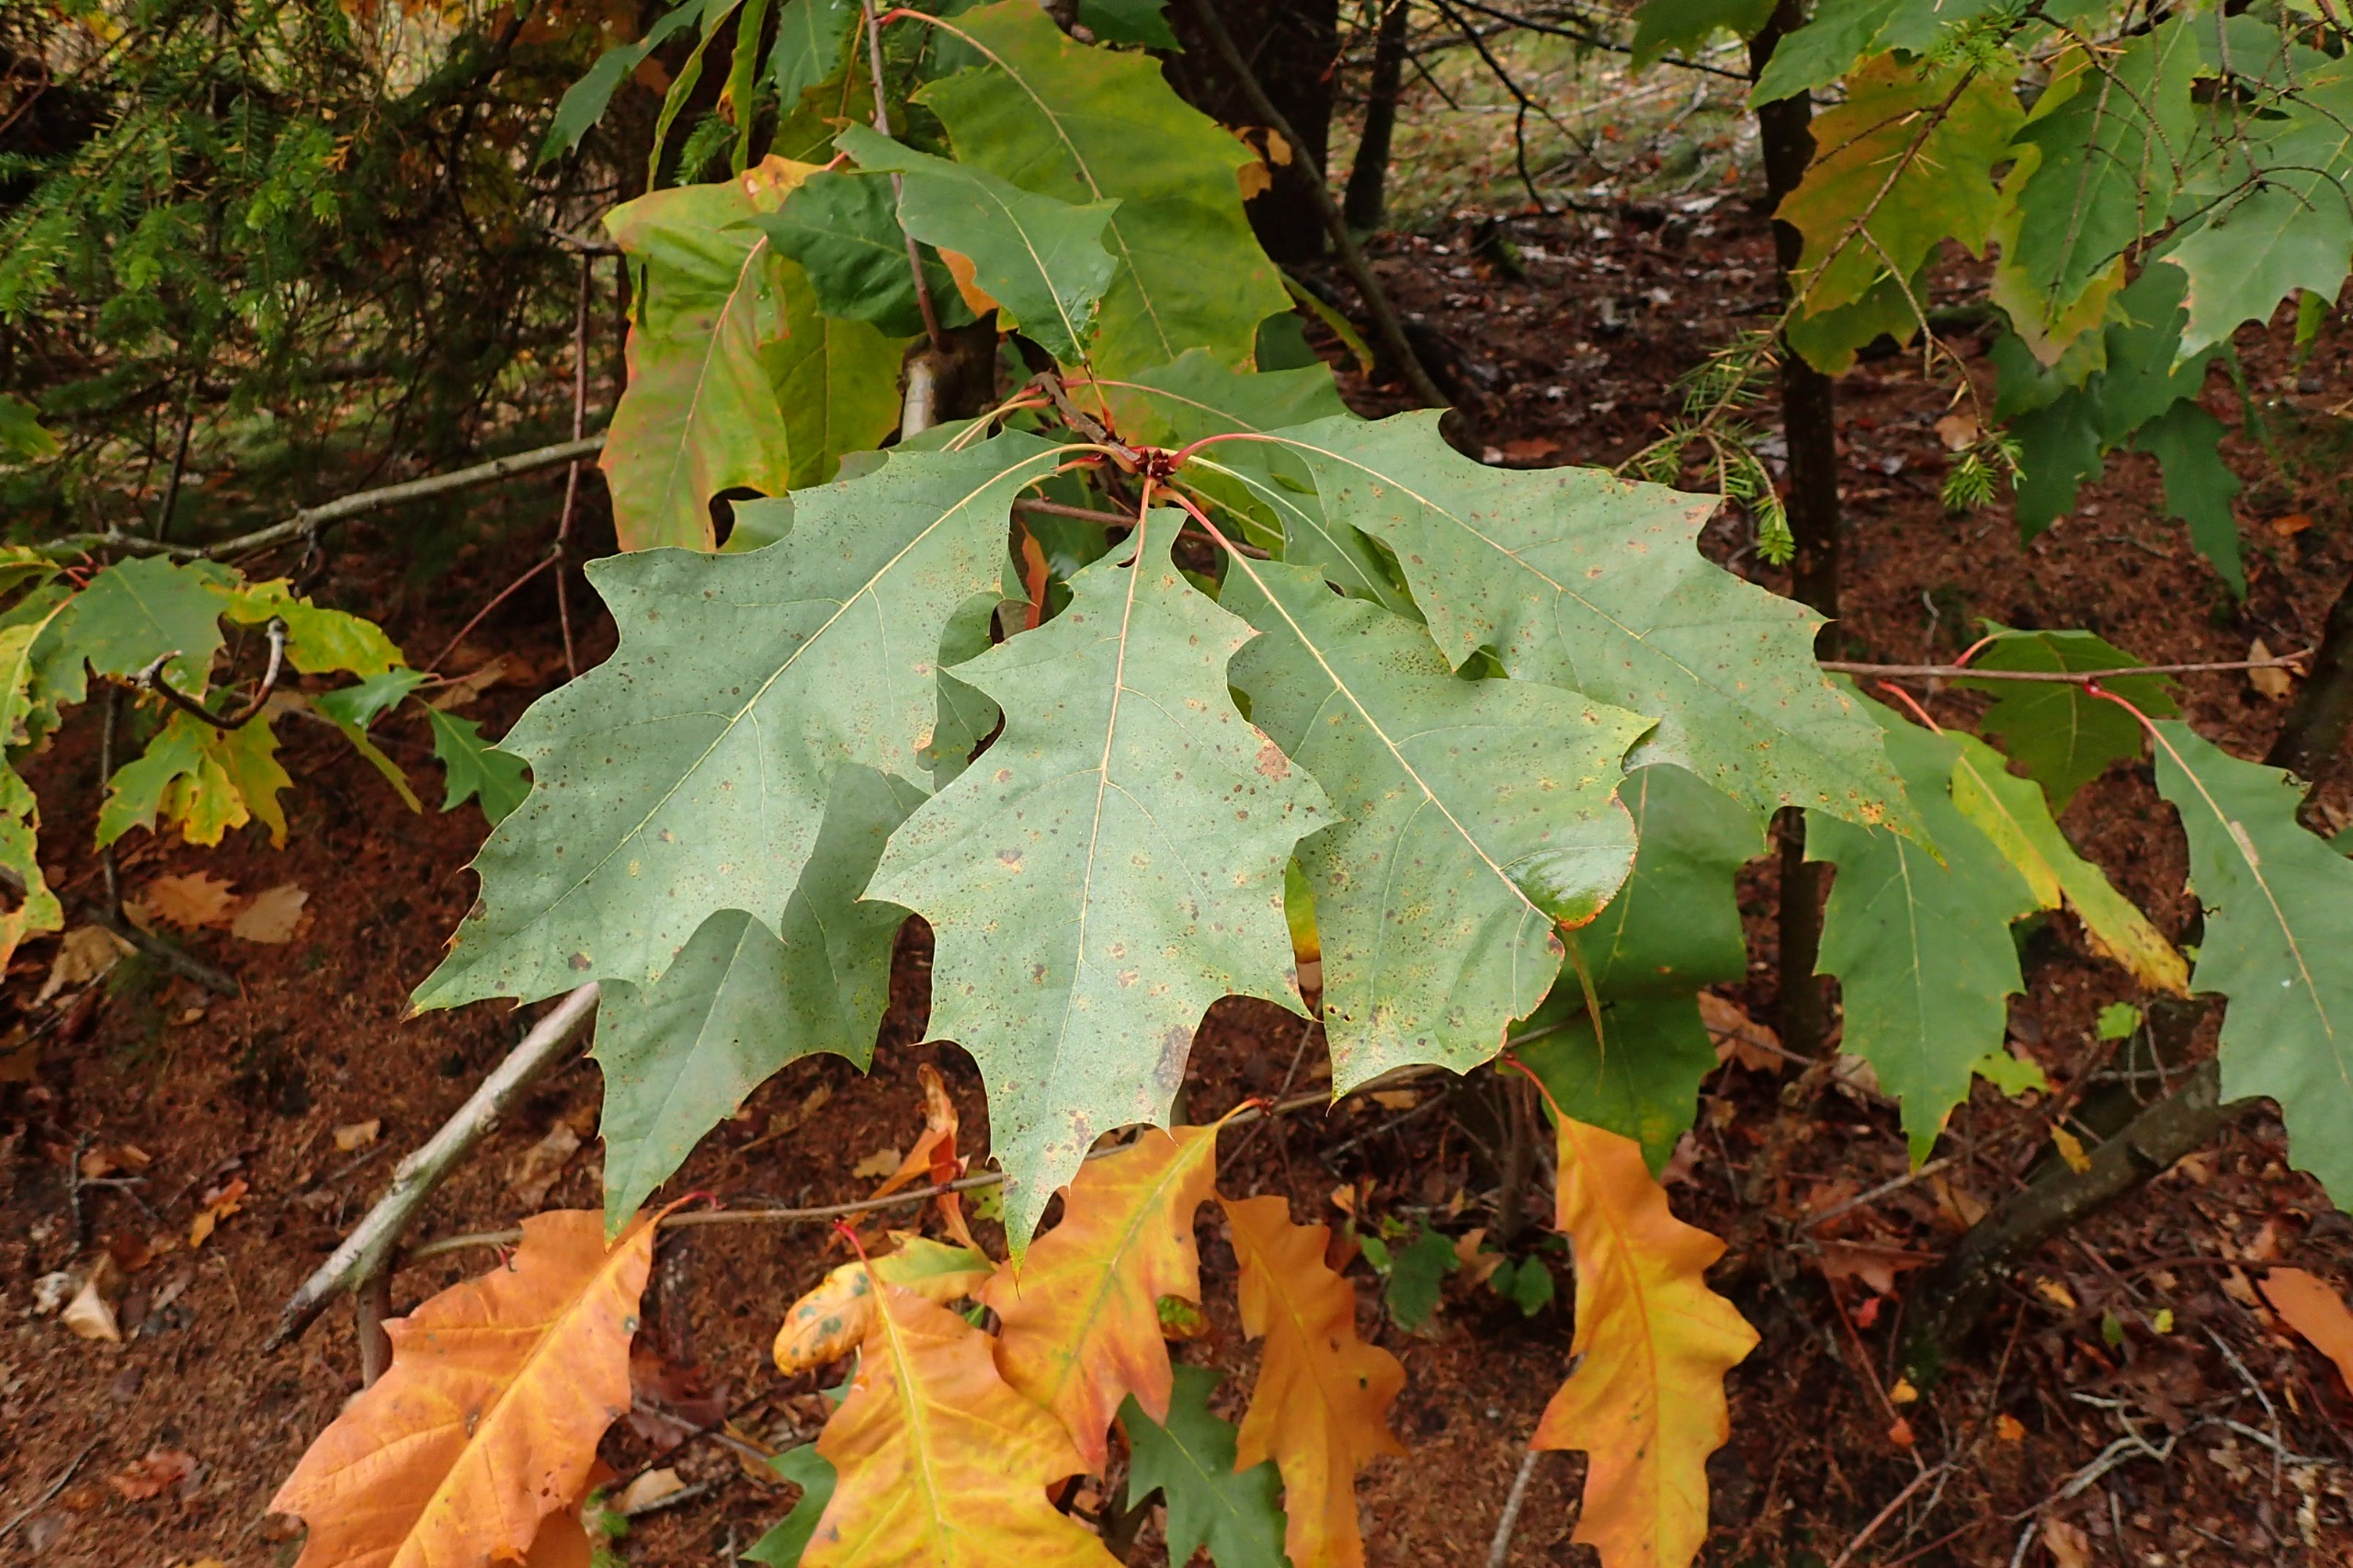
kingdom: Plantae
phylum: Tracheophyta
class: Magnoliopsida
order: Fagales
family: Fagaceae
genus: Quercus
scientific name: Quercus rubra
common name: Rød-eg
